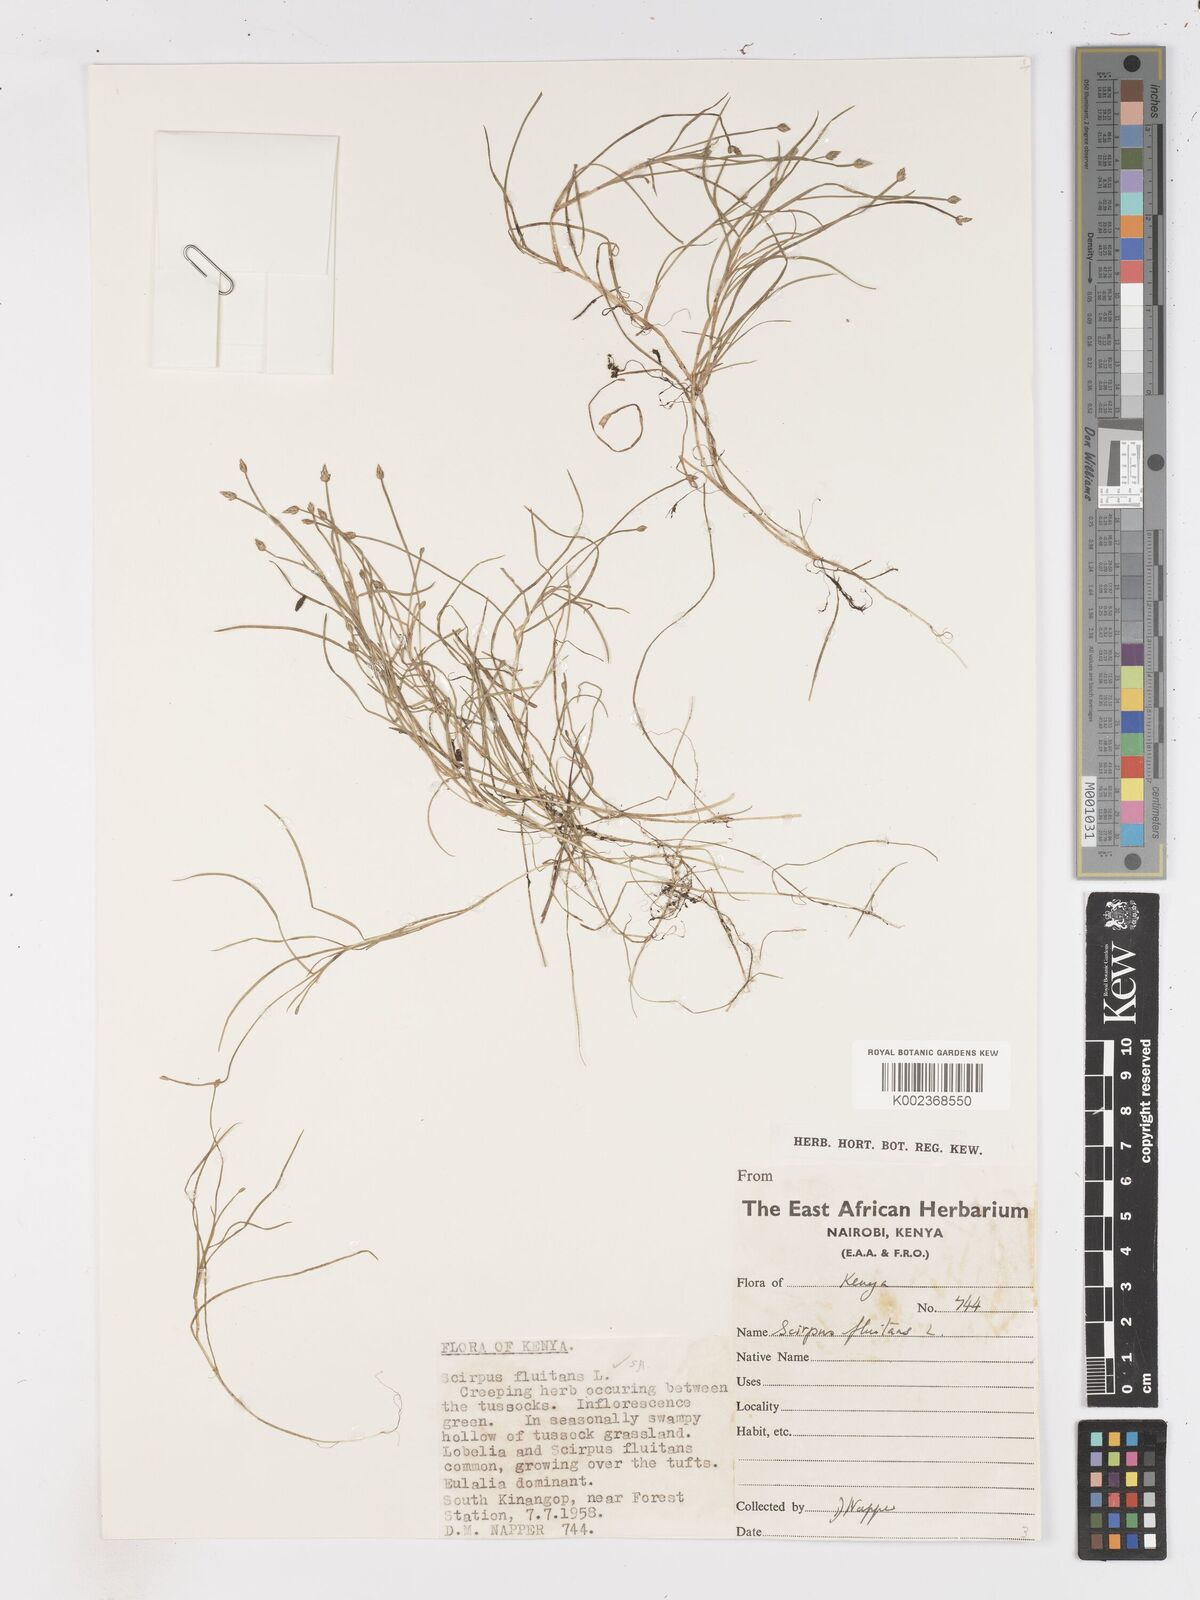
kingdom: Plantae
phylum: Tracheophyta
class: Liliopsida
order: Poales
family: Cyperaceae
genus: Isolepis
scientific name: Isolepis fluitans
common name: Floating club-rush
